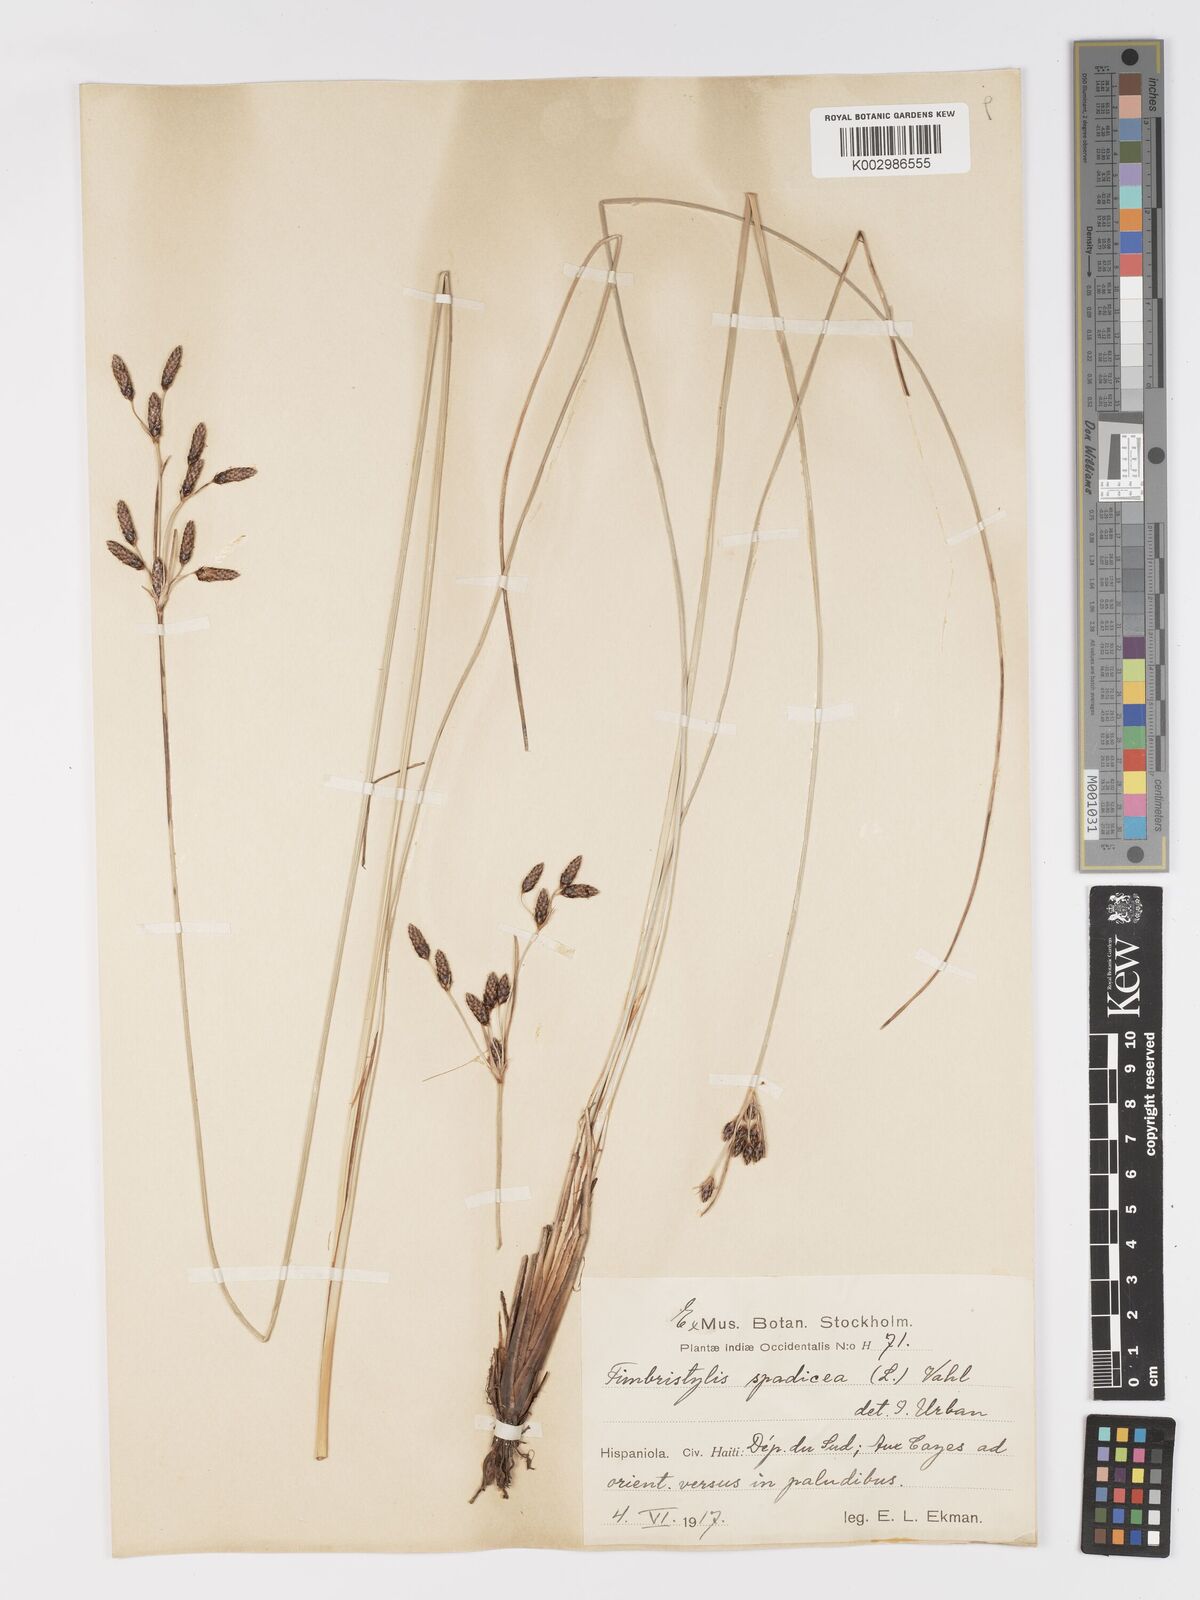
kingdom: Plantae
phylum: Tracheophyta
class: Liliopsida
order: Poales
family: Cyperaceae
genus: Fimbristylis
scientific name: Fimbristylis spadicea
